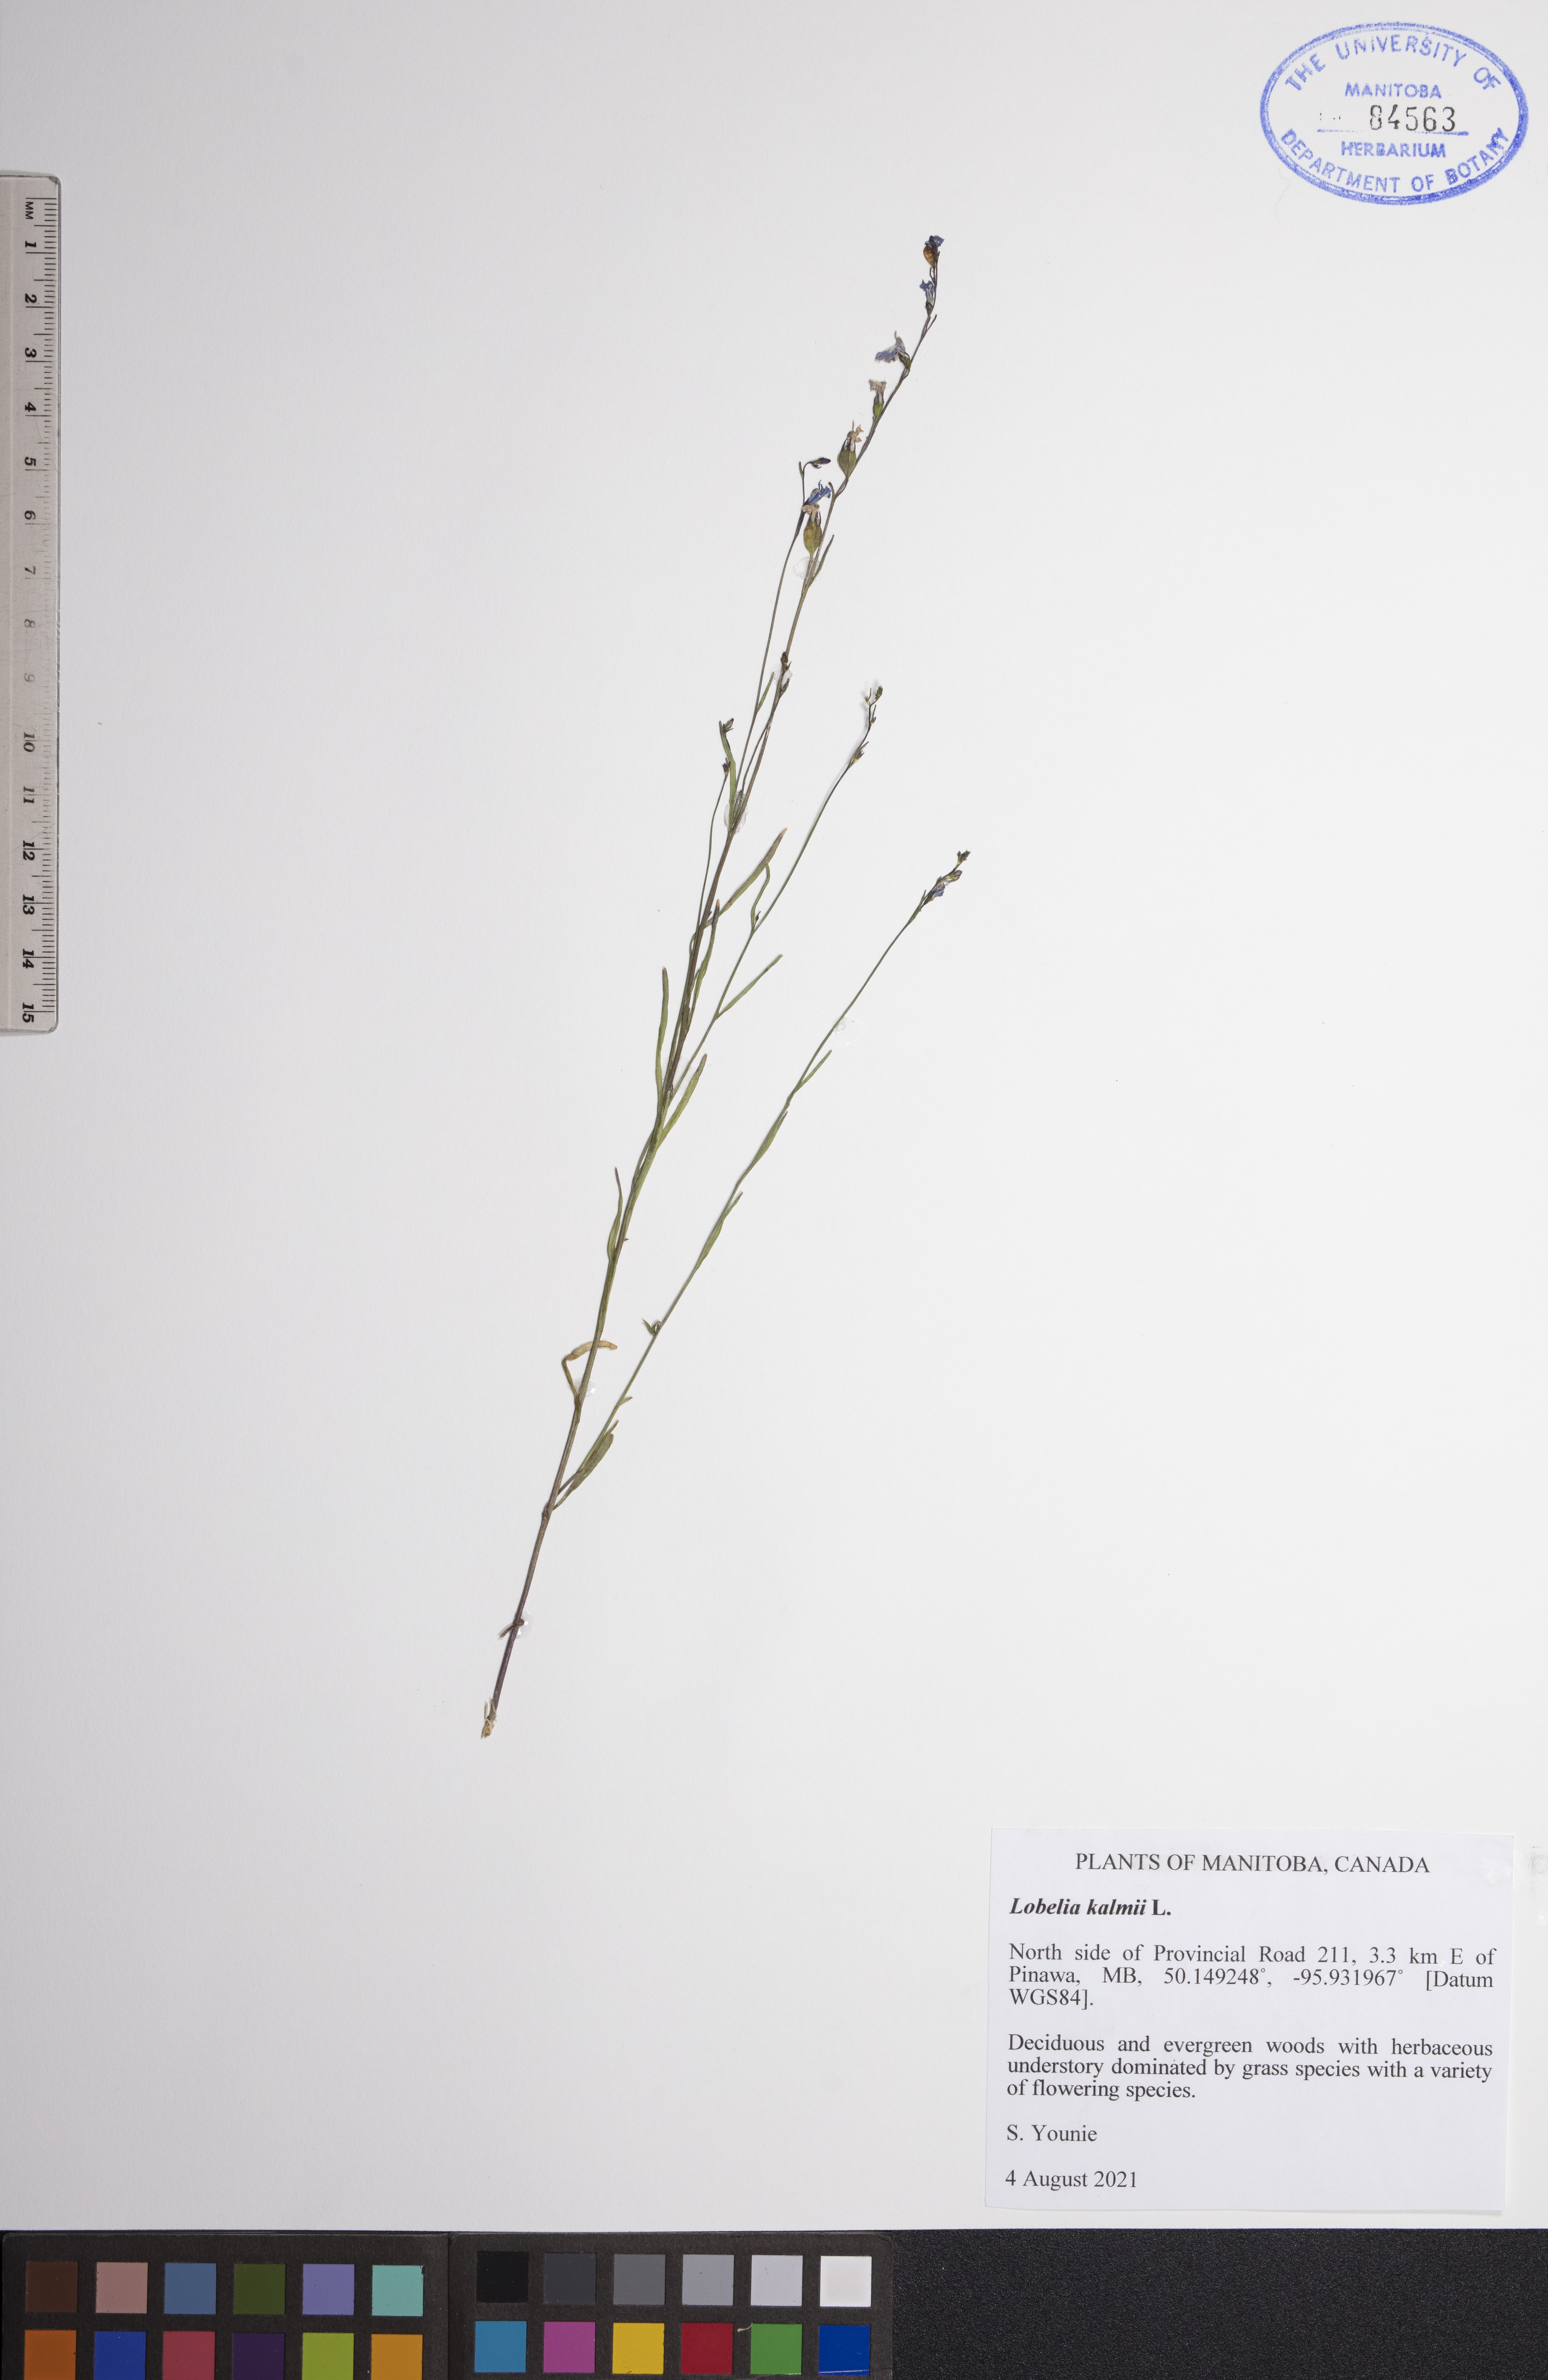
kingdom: Plantae
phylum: Tracheophyta
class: Magnoliopsida
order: Asterales
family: Campanulaceae
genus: Lobelia
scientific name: Lobelia kalmii
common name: Kalm's lobelia
